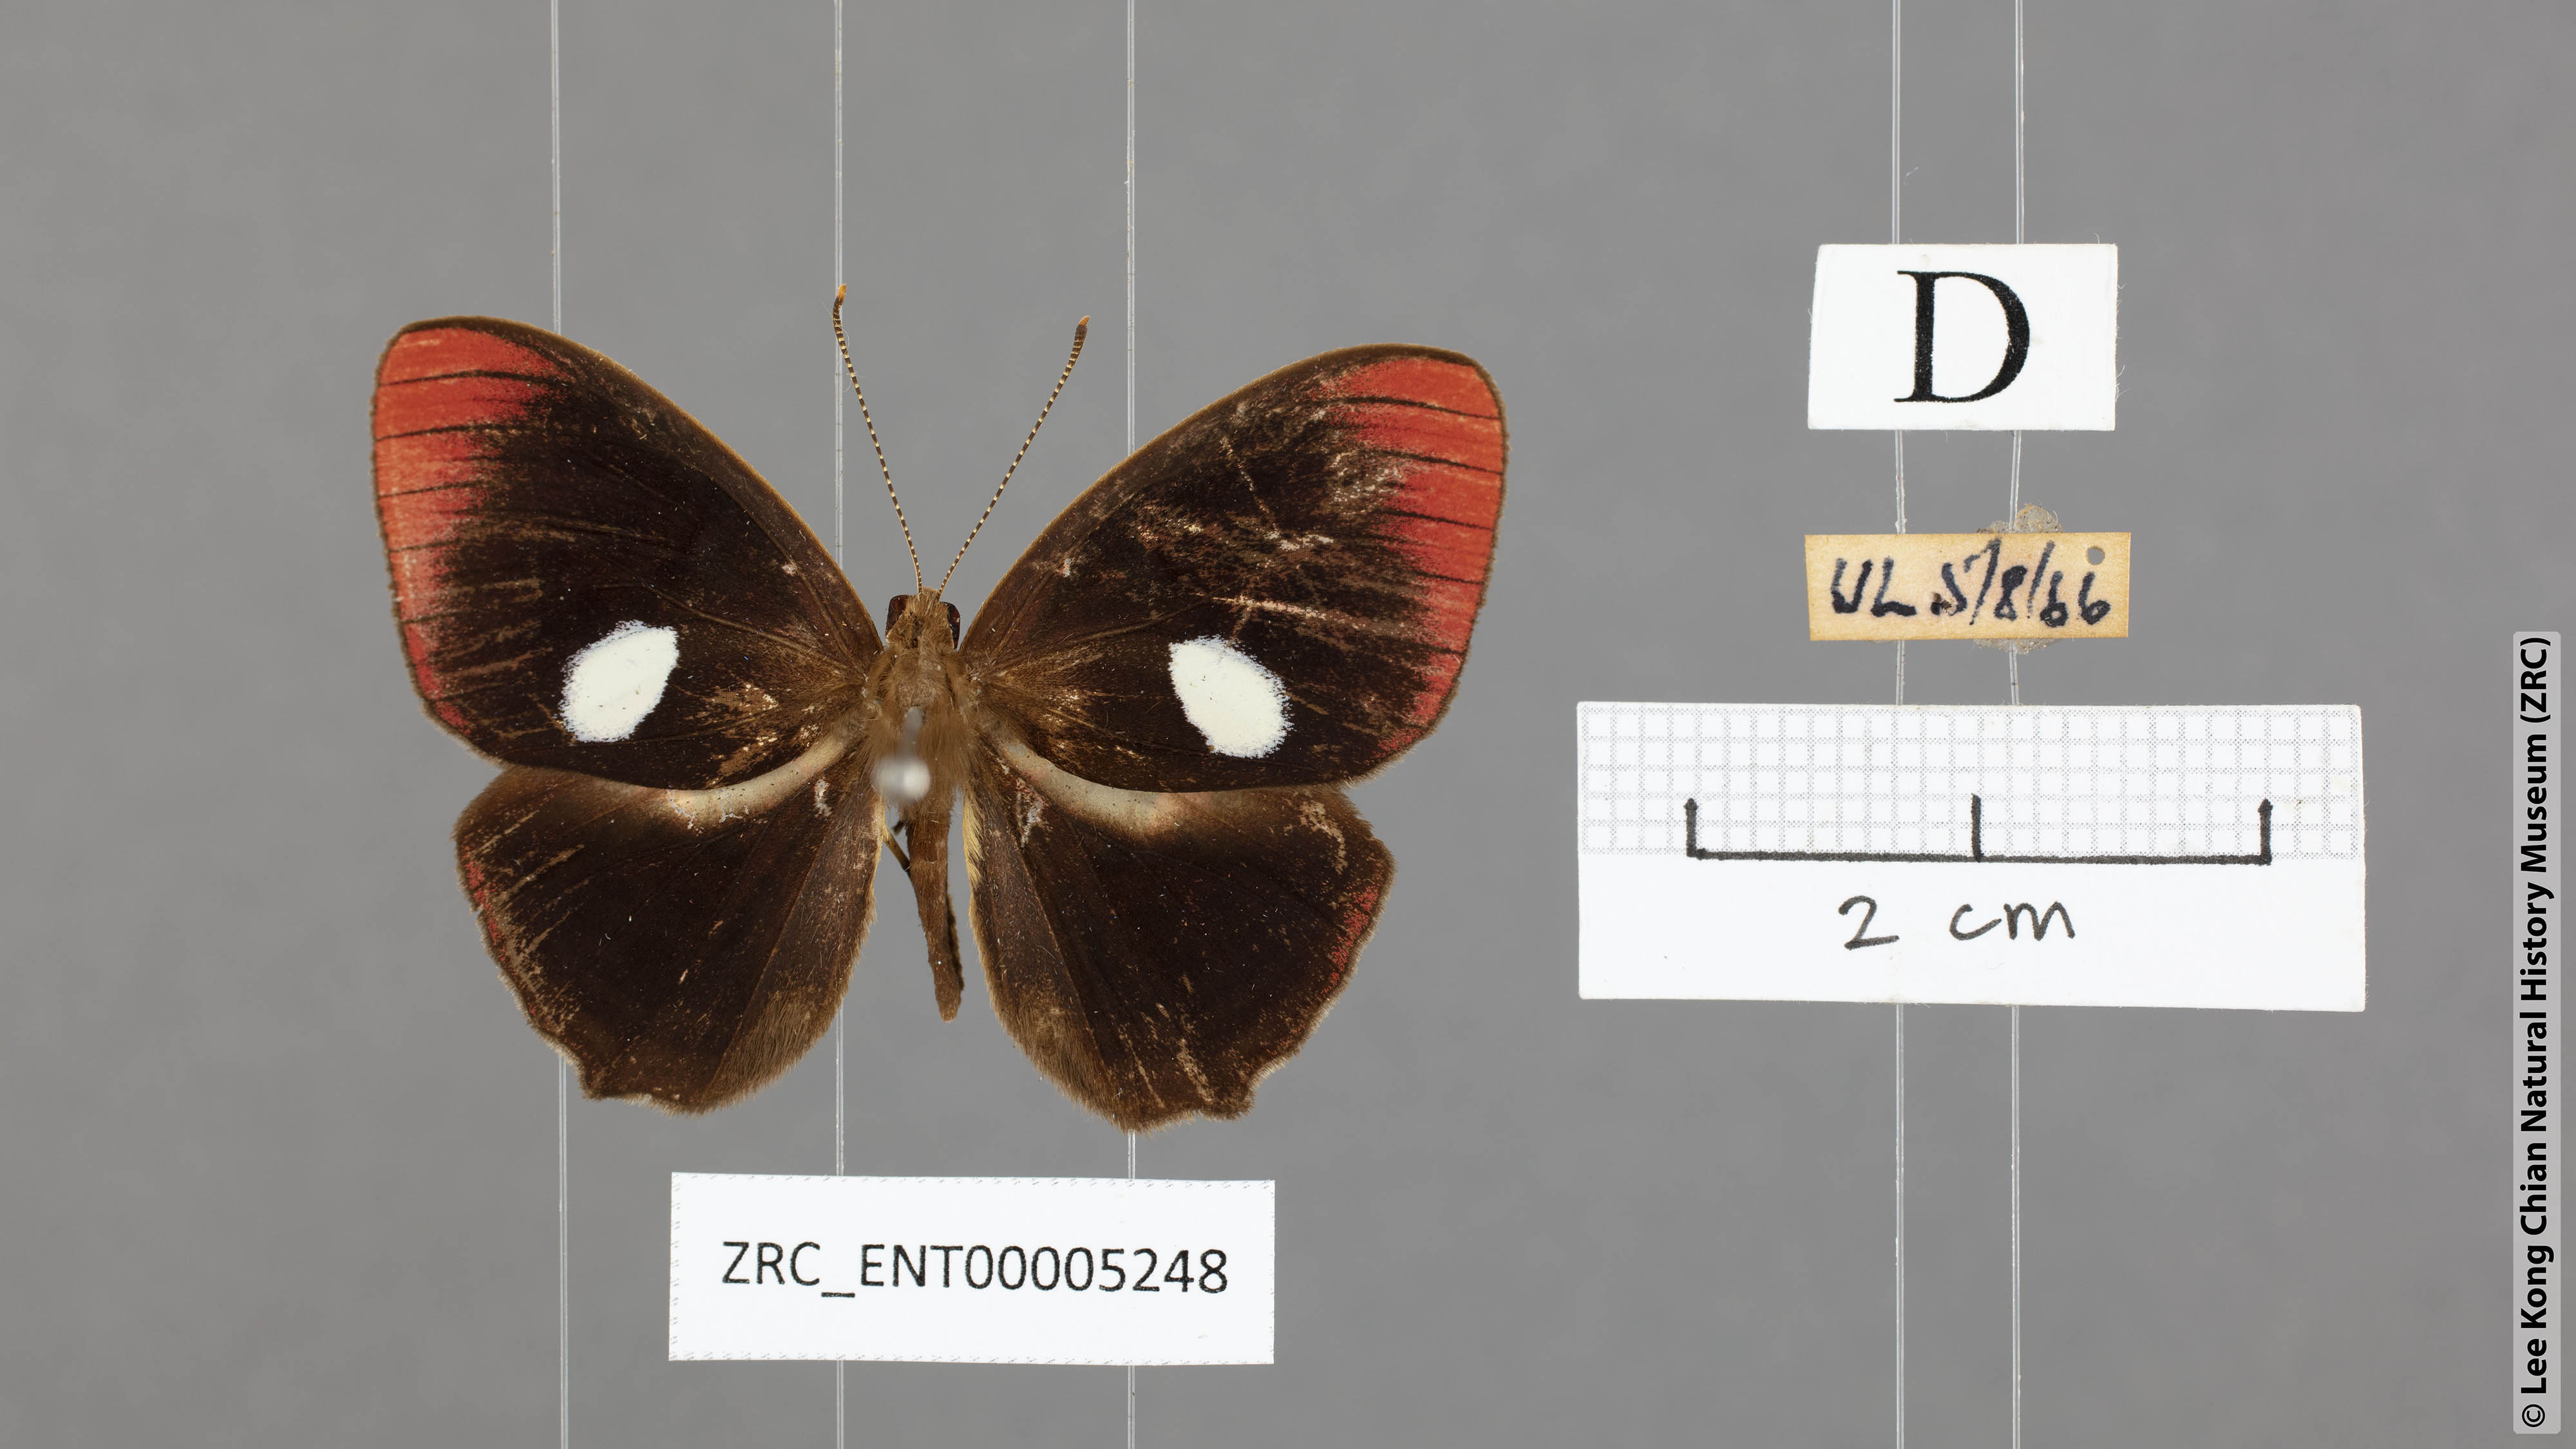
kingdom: Animalia
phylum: Arthropoda
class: Insecta
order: Lepidoptera
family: Riodinidae
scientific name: Riodinidae
